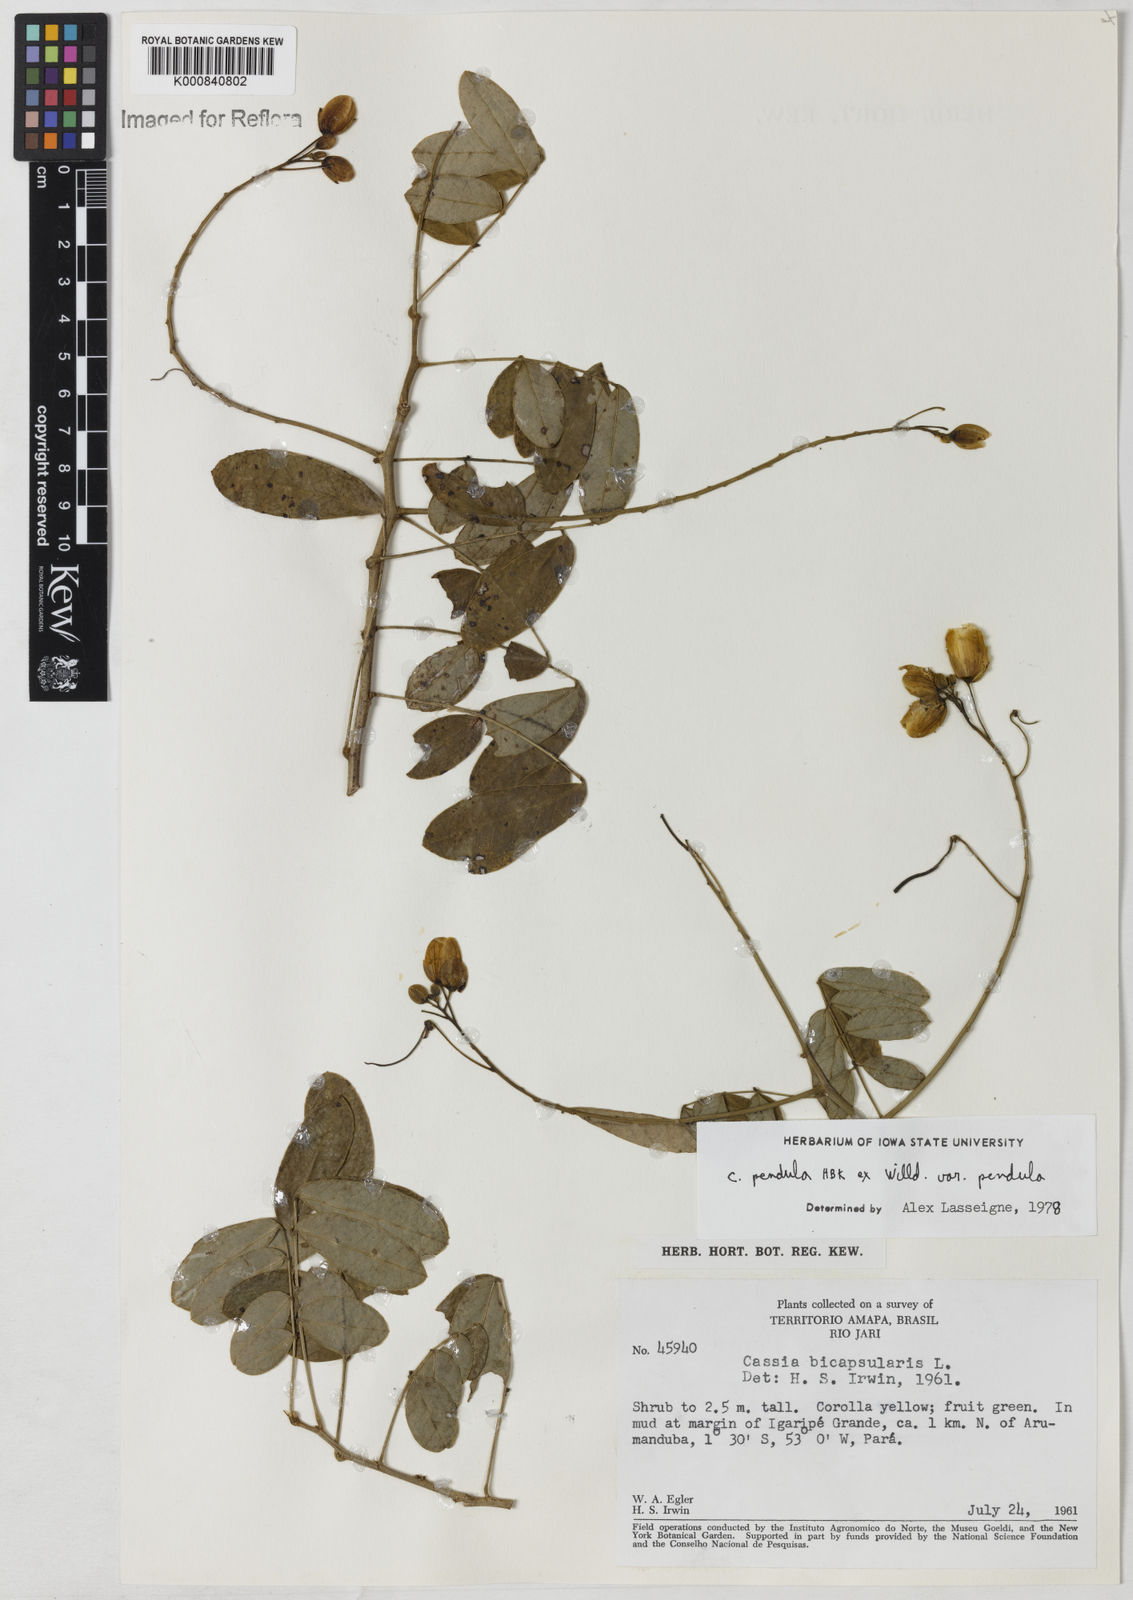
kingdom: Plantae
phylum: Tracheophyta
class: Magnoliopsida
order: Fabales
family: Fabaceae
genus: Senna
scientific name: Senna pendula
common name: Easter cassia
